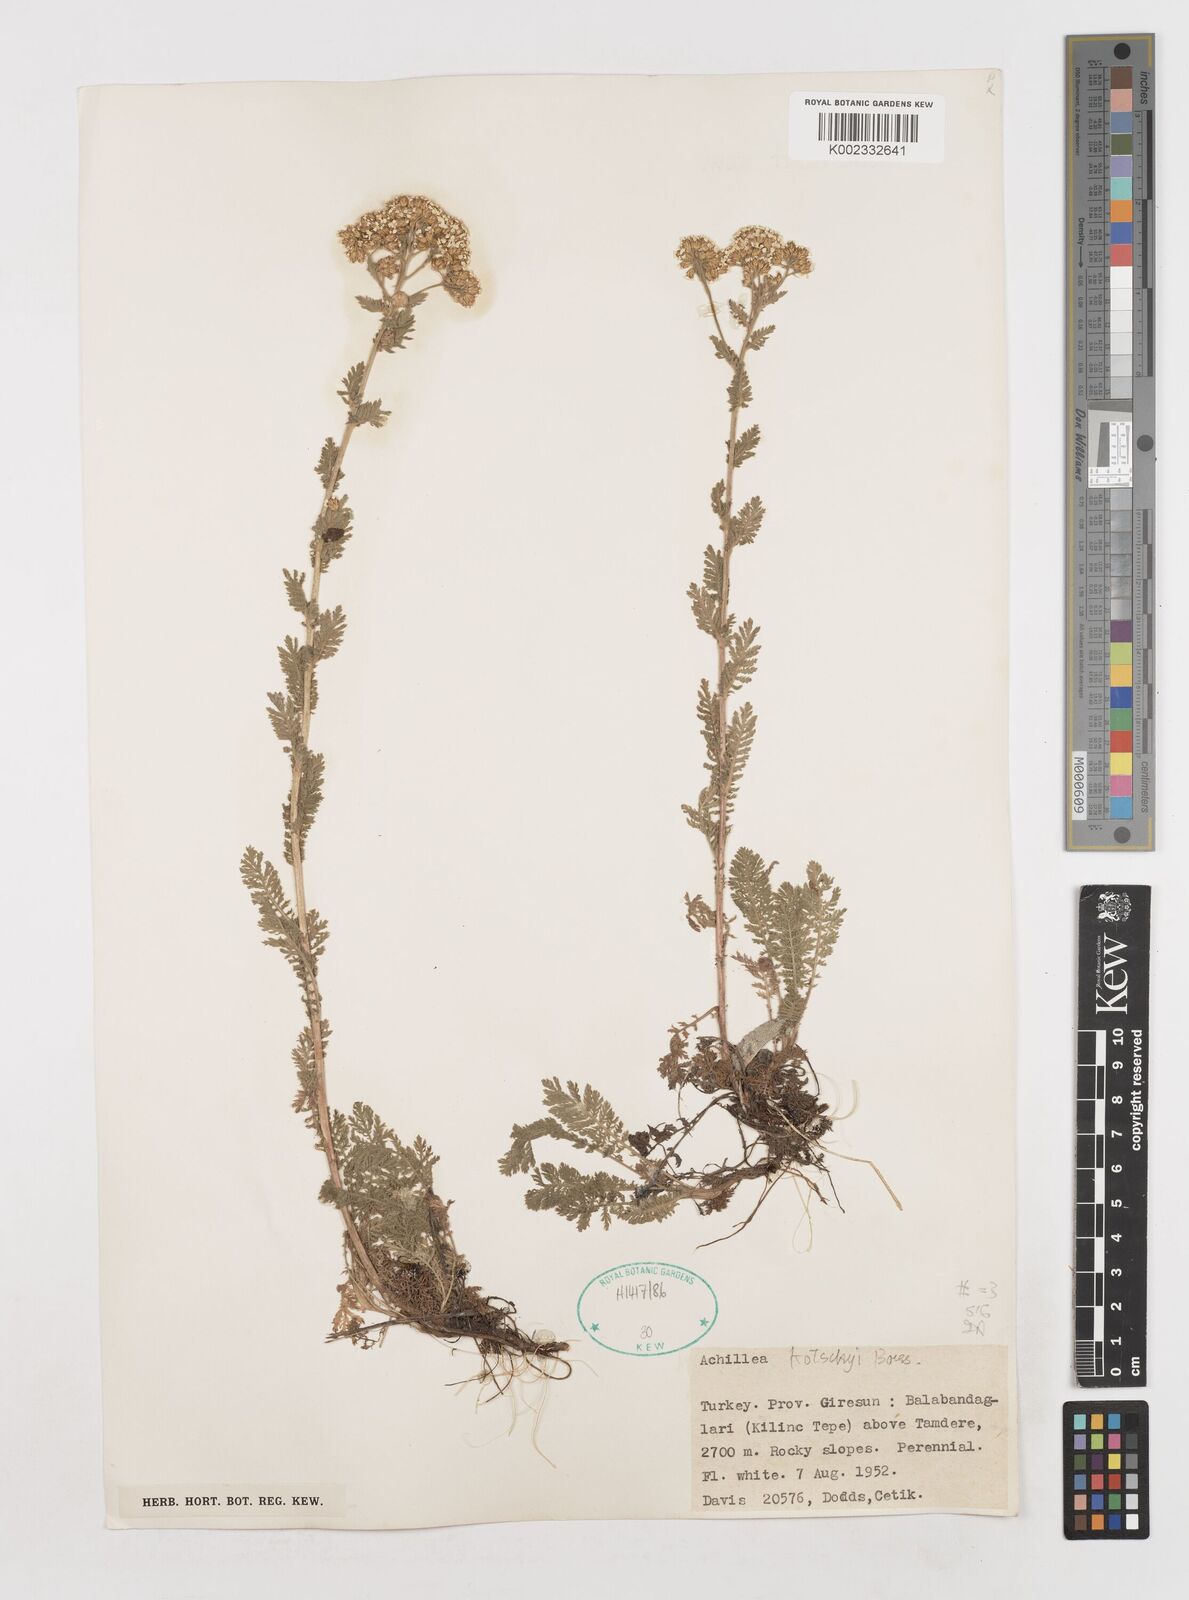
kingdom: Plantae
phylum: Tracheophyta
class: Magnoliopsida
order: Asterales
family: Asteraceae
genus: Achillea
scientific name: Achillea kotschyi
